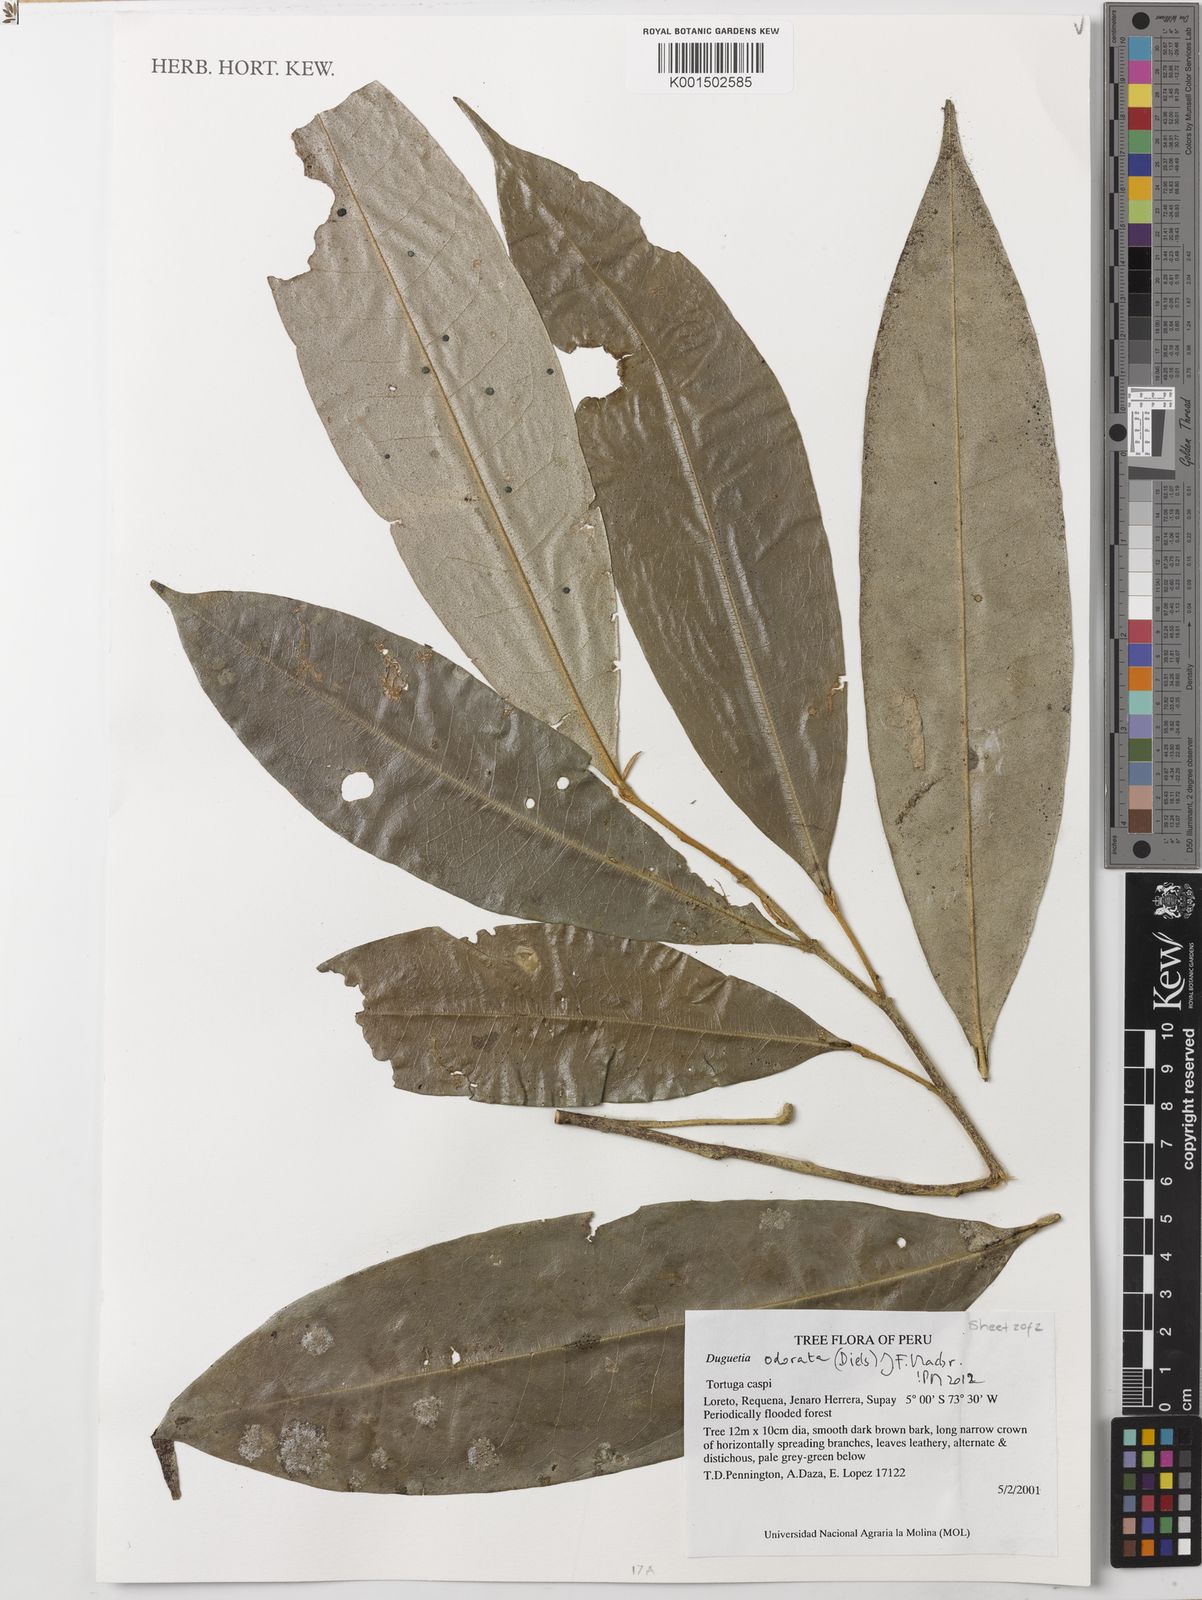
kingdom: Plantae
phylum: Tracheophyta
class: Magnoliopsida
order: Magnoliales
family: Annonaceae
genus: Duguetia
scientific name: Duguetia odorata
